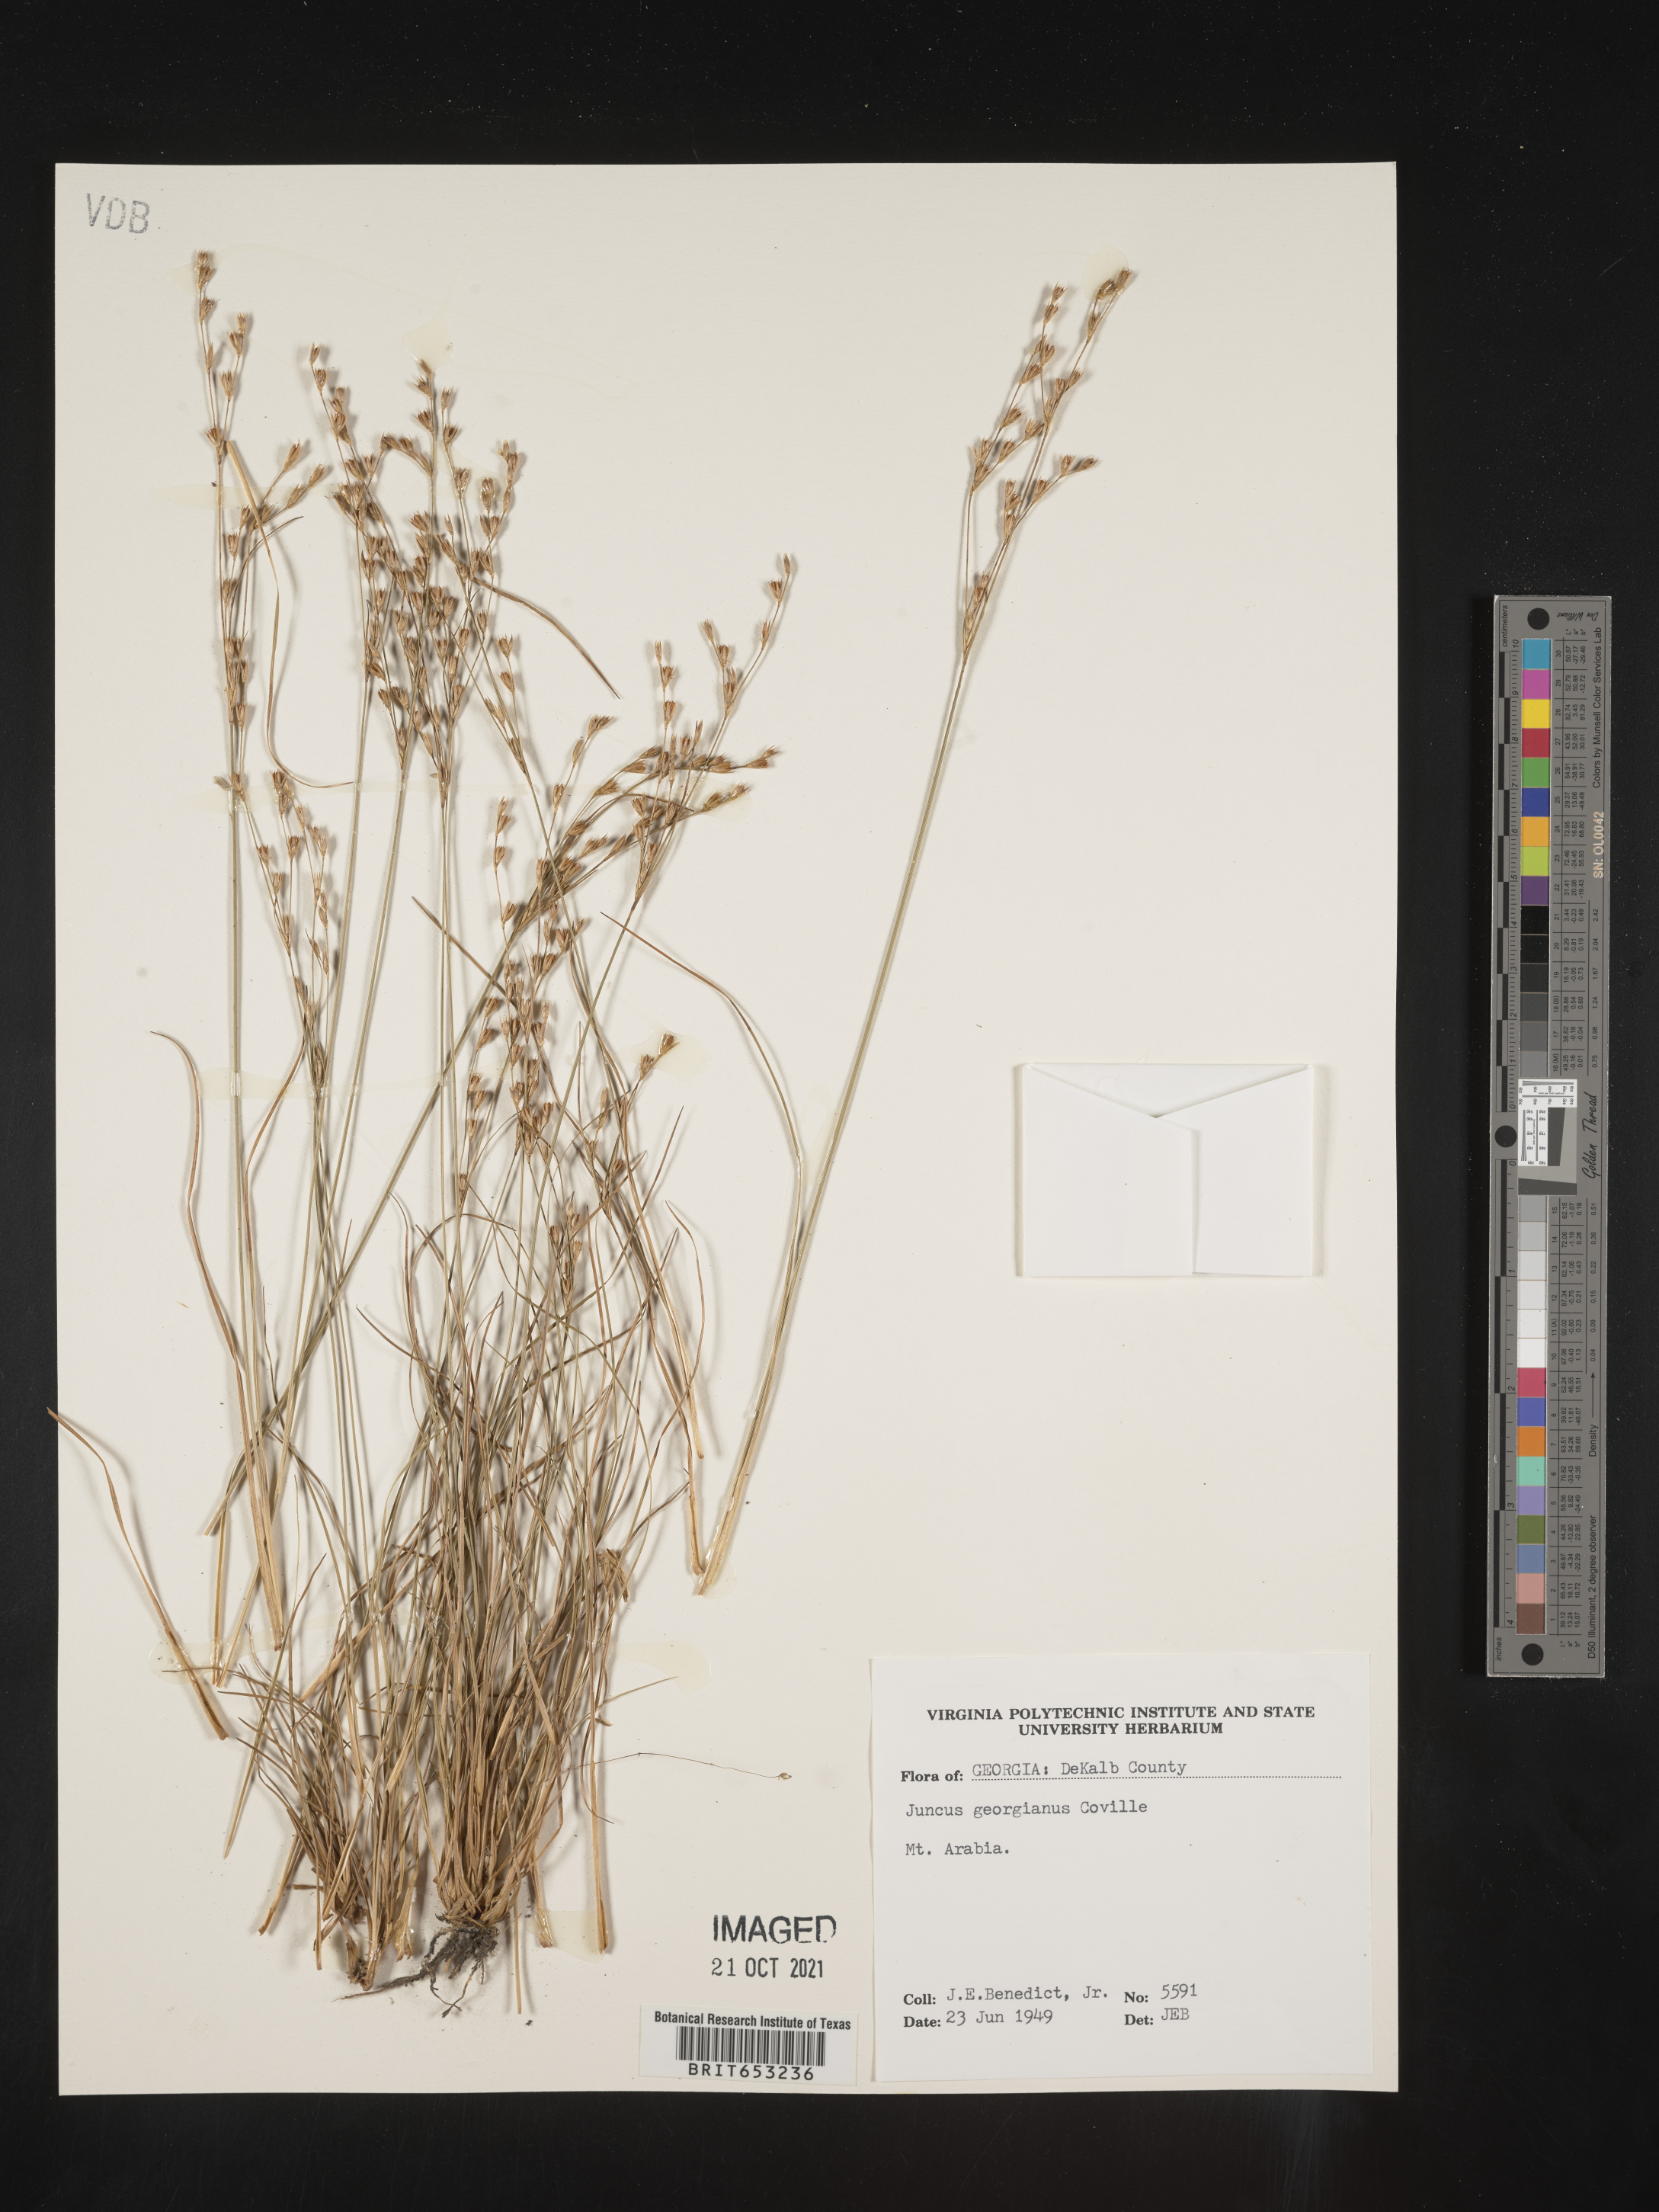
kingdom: Plantae
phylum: Tracheophyta
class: Liliopsida
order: Poales
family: Juncaceae
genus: Juncus
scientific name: Juncus georgianus
